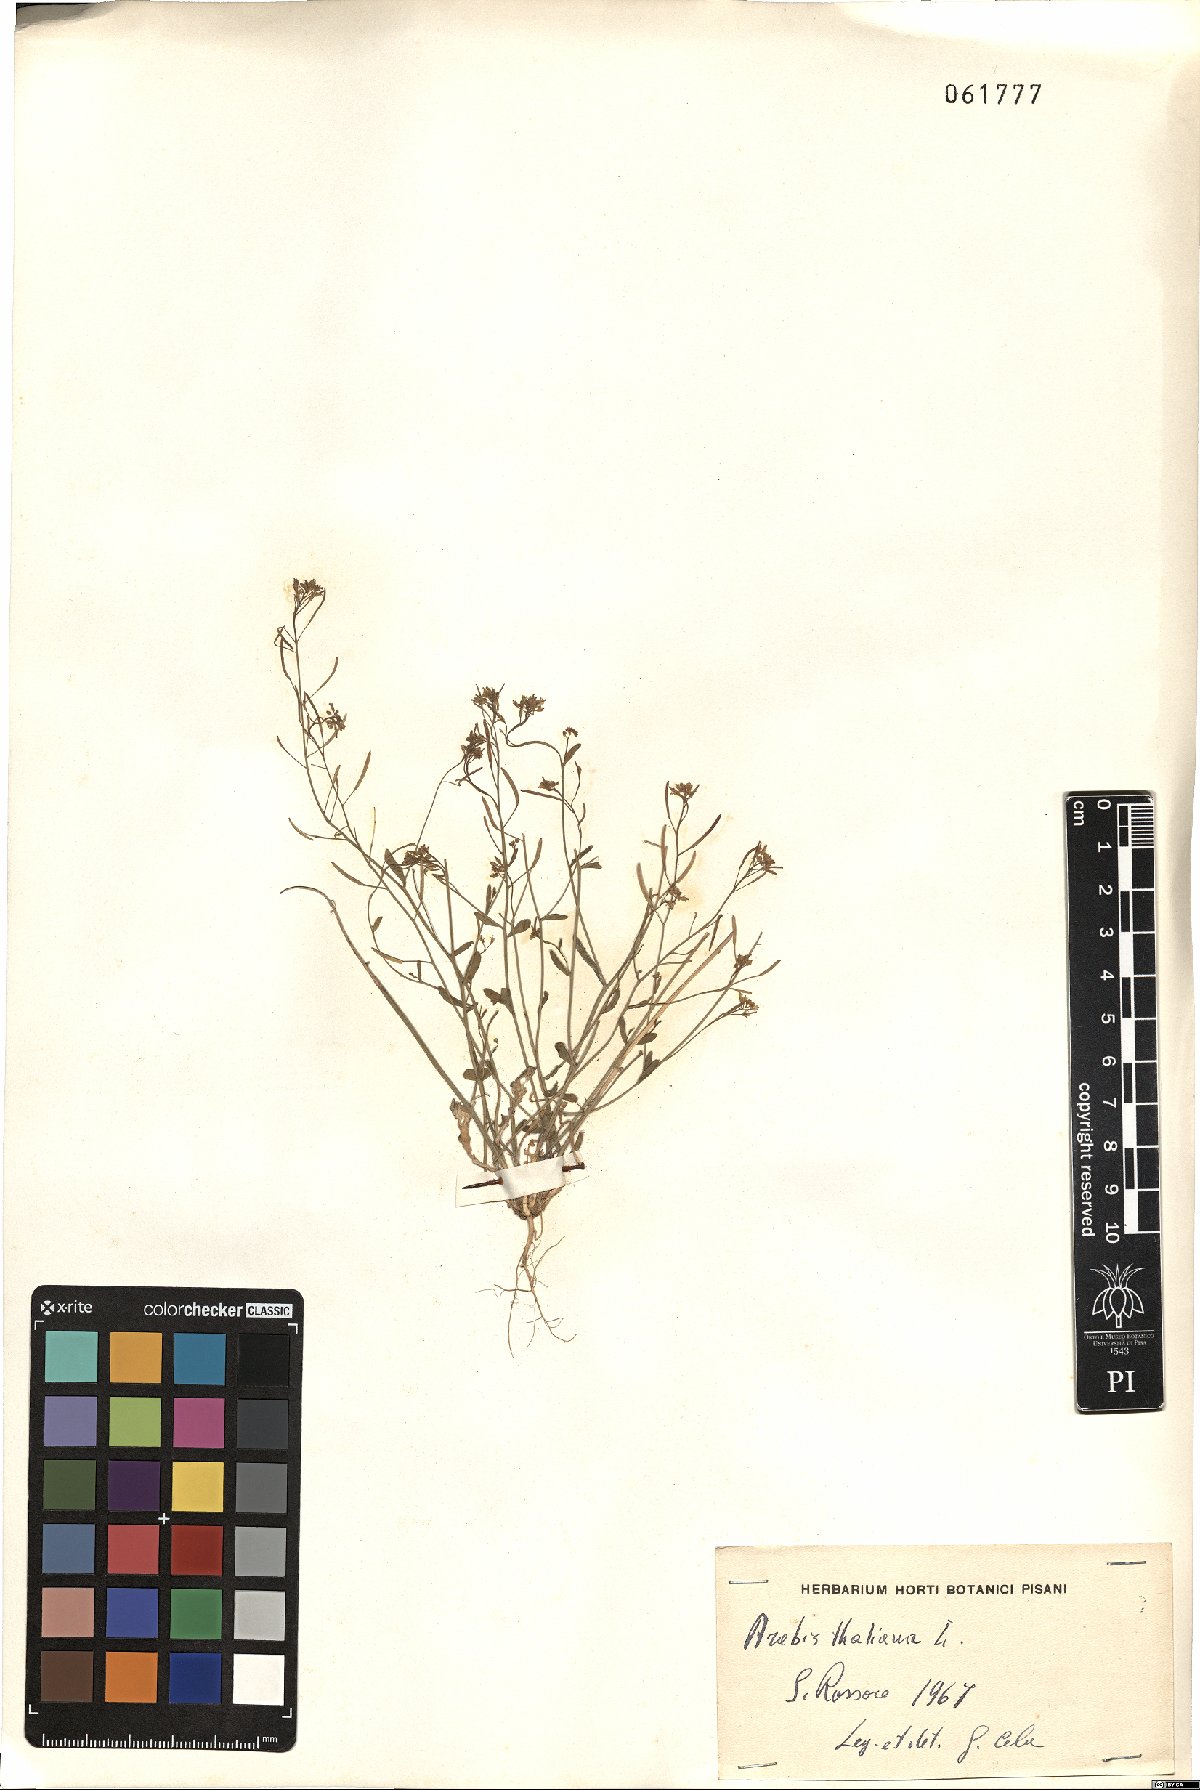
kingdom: Plantae
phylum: Tracheophyta
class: Magnoliopsida
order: Brassicales
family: Brassicaceae
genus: Arabidopsis
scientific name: Arabidopsis thaliana
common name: Thale cress
